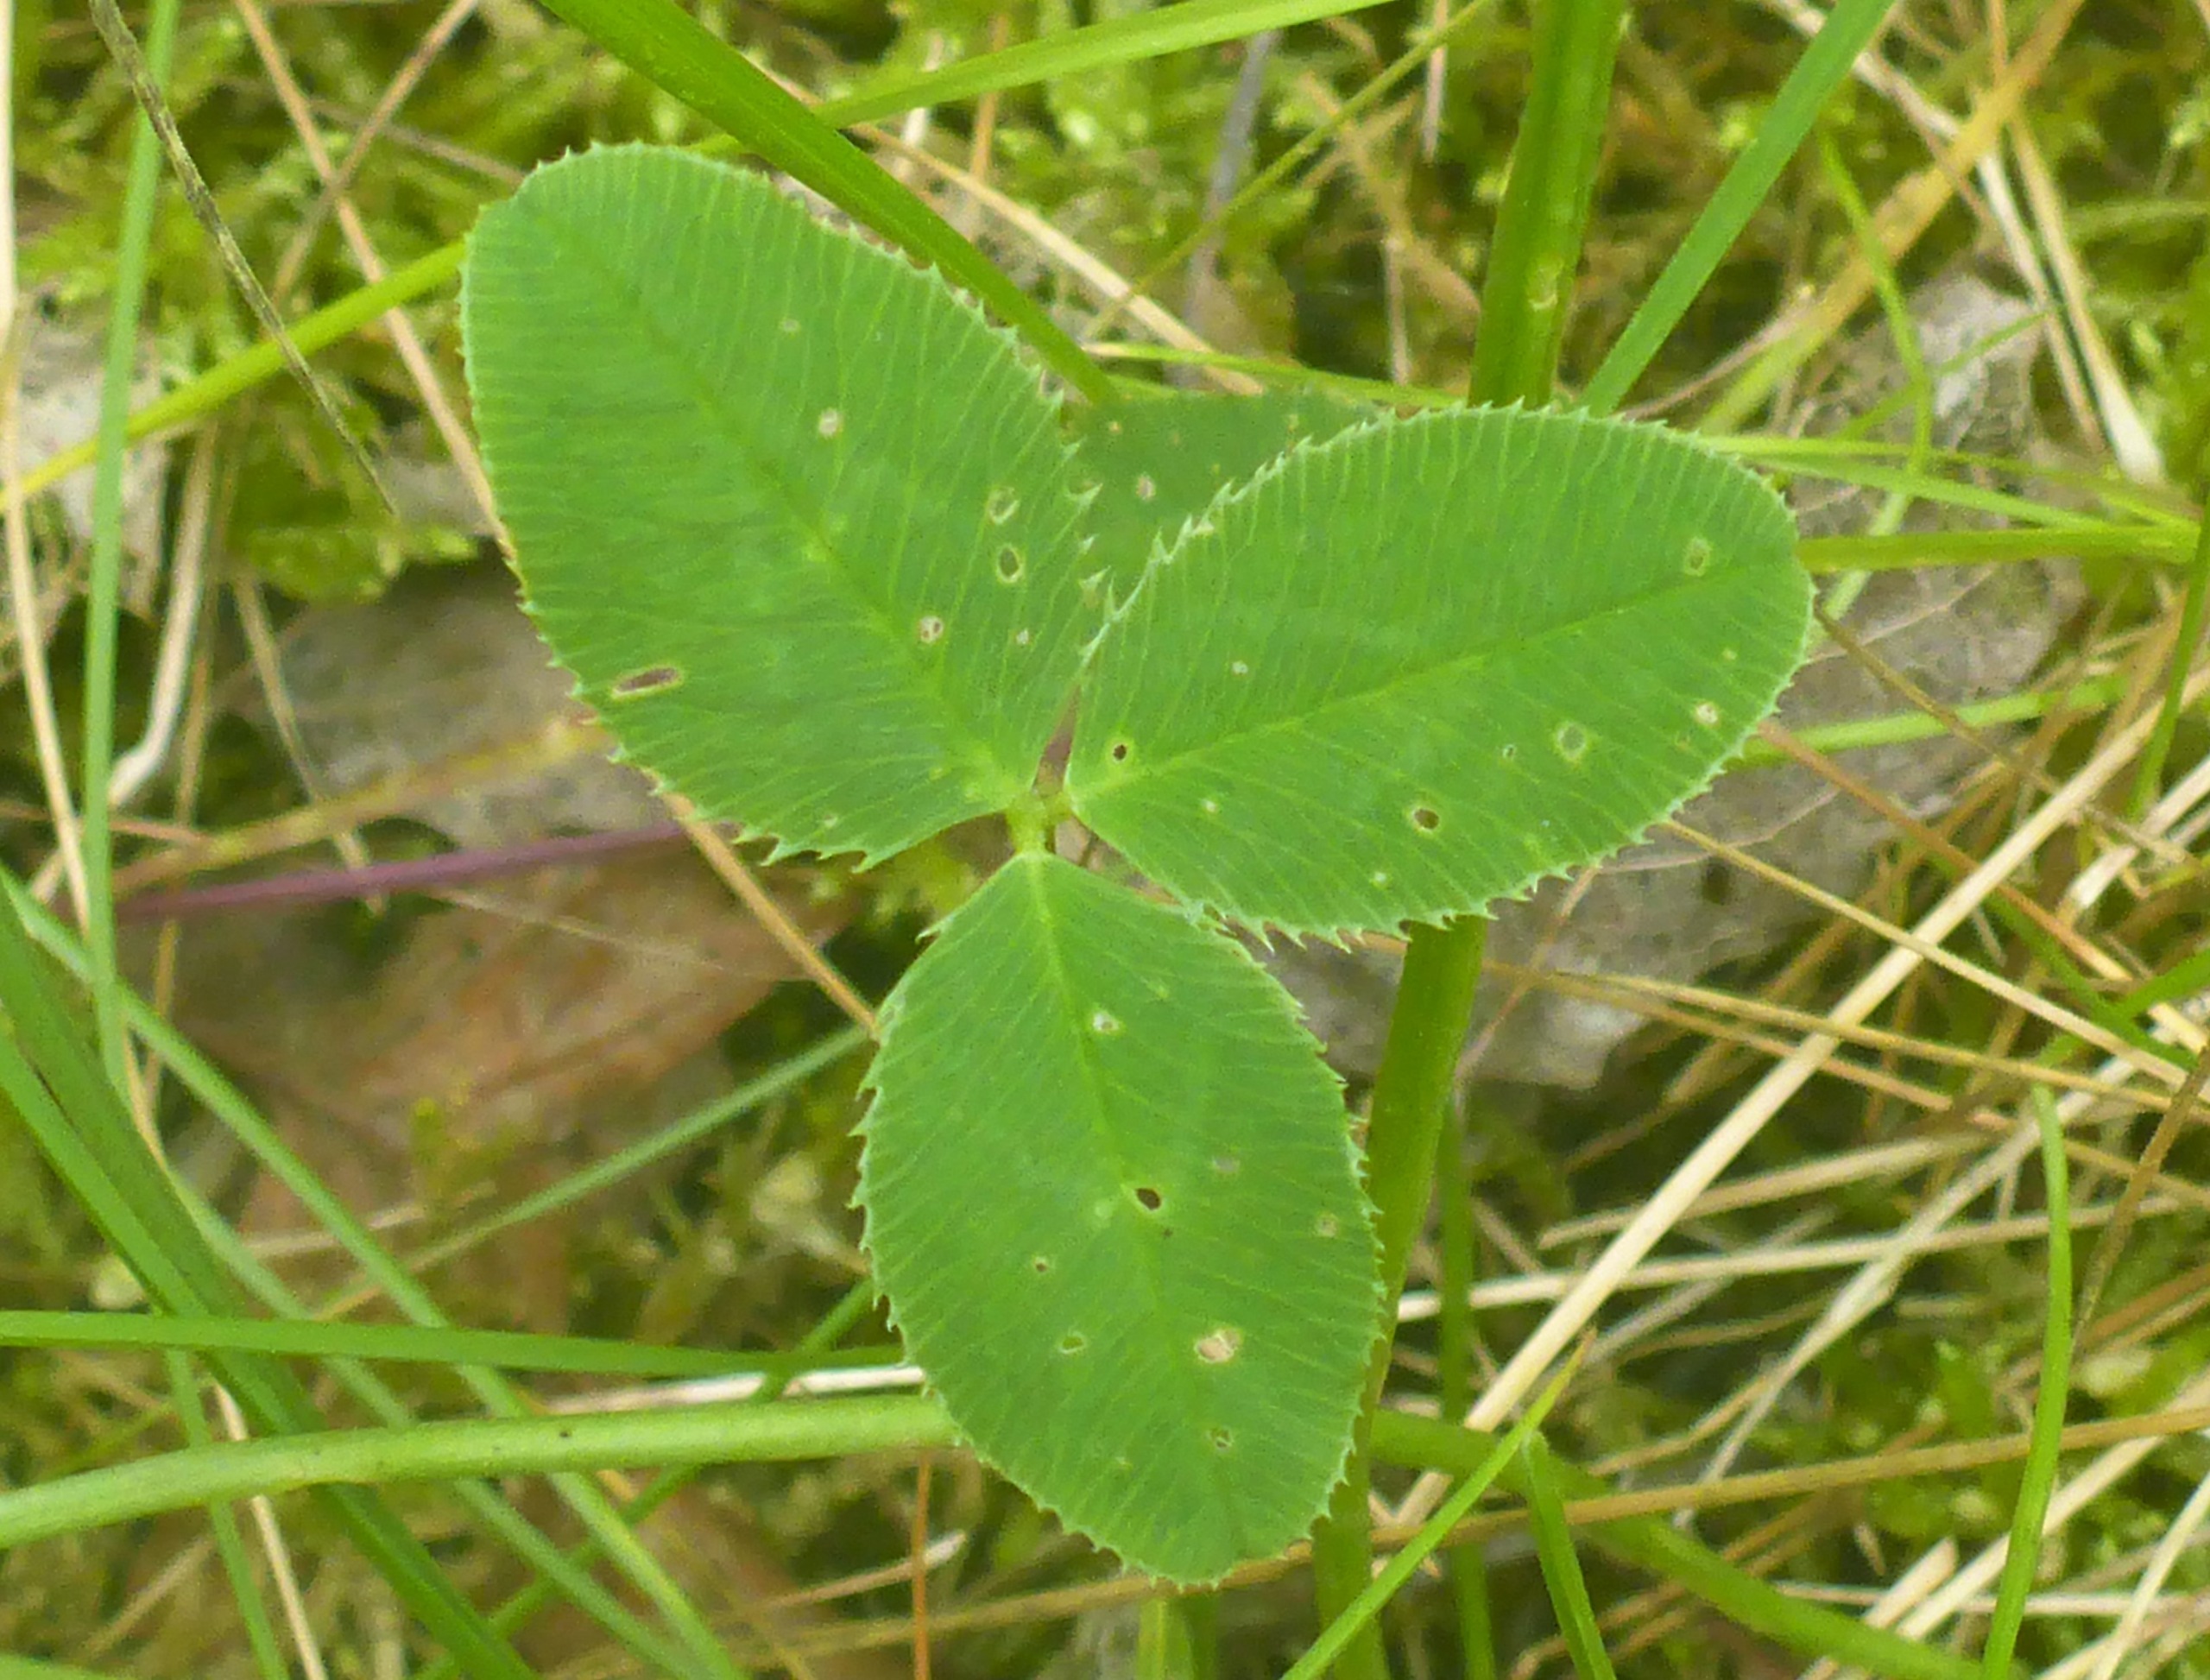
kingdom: Plantae
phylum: Tracheophyta
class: Magnoliopsida
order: Fabales
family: Fabaceae
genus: Trifolium
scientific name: Trifolium repens
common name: Hvid-kløver
